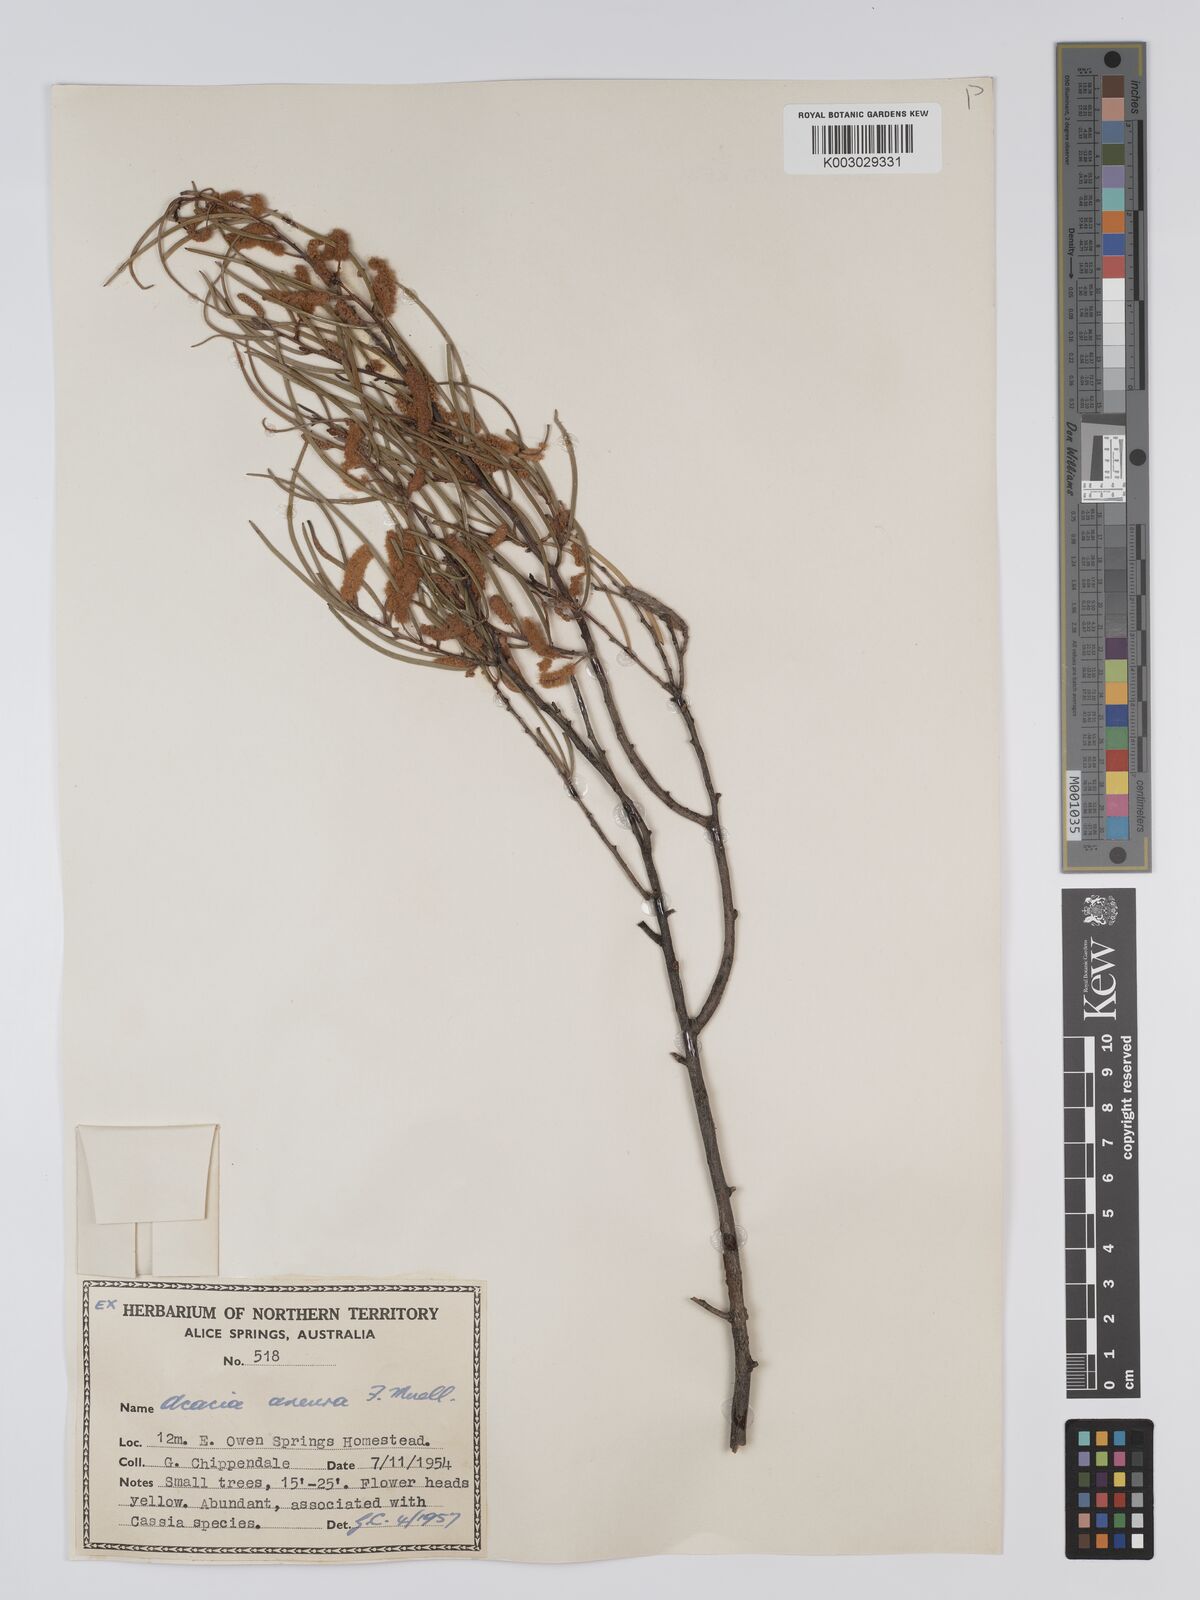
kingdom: Plantae
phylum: Tracheophyta
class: Magnoliopsida
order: Fabales
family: Fabaceae
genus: Acacia
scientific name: Acacia aneura
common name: Mulga
